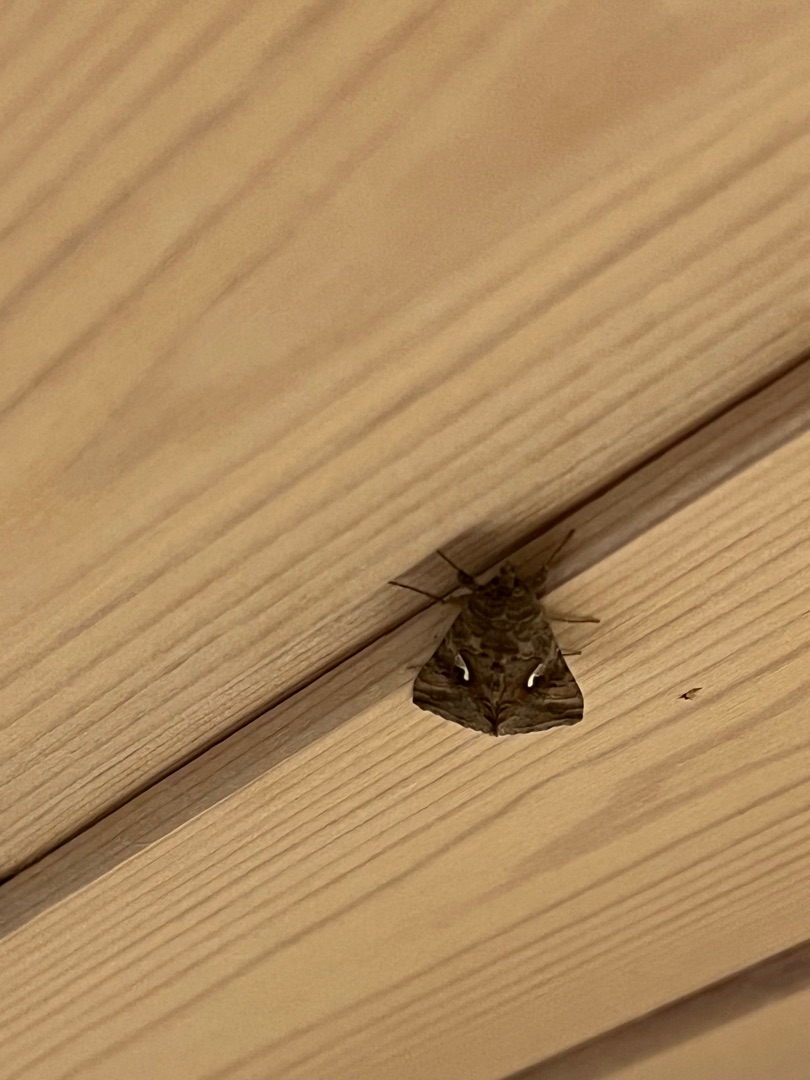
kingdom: Animalia
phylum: Arthropoda
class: Insecta
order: Lepidoptera
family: Noctuidae
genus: Autographa
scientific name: Autographa gamma
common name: Gammaugle
